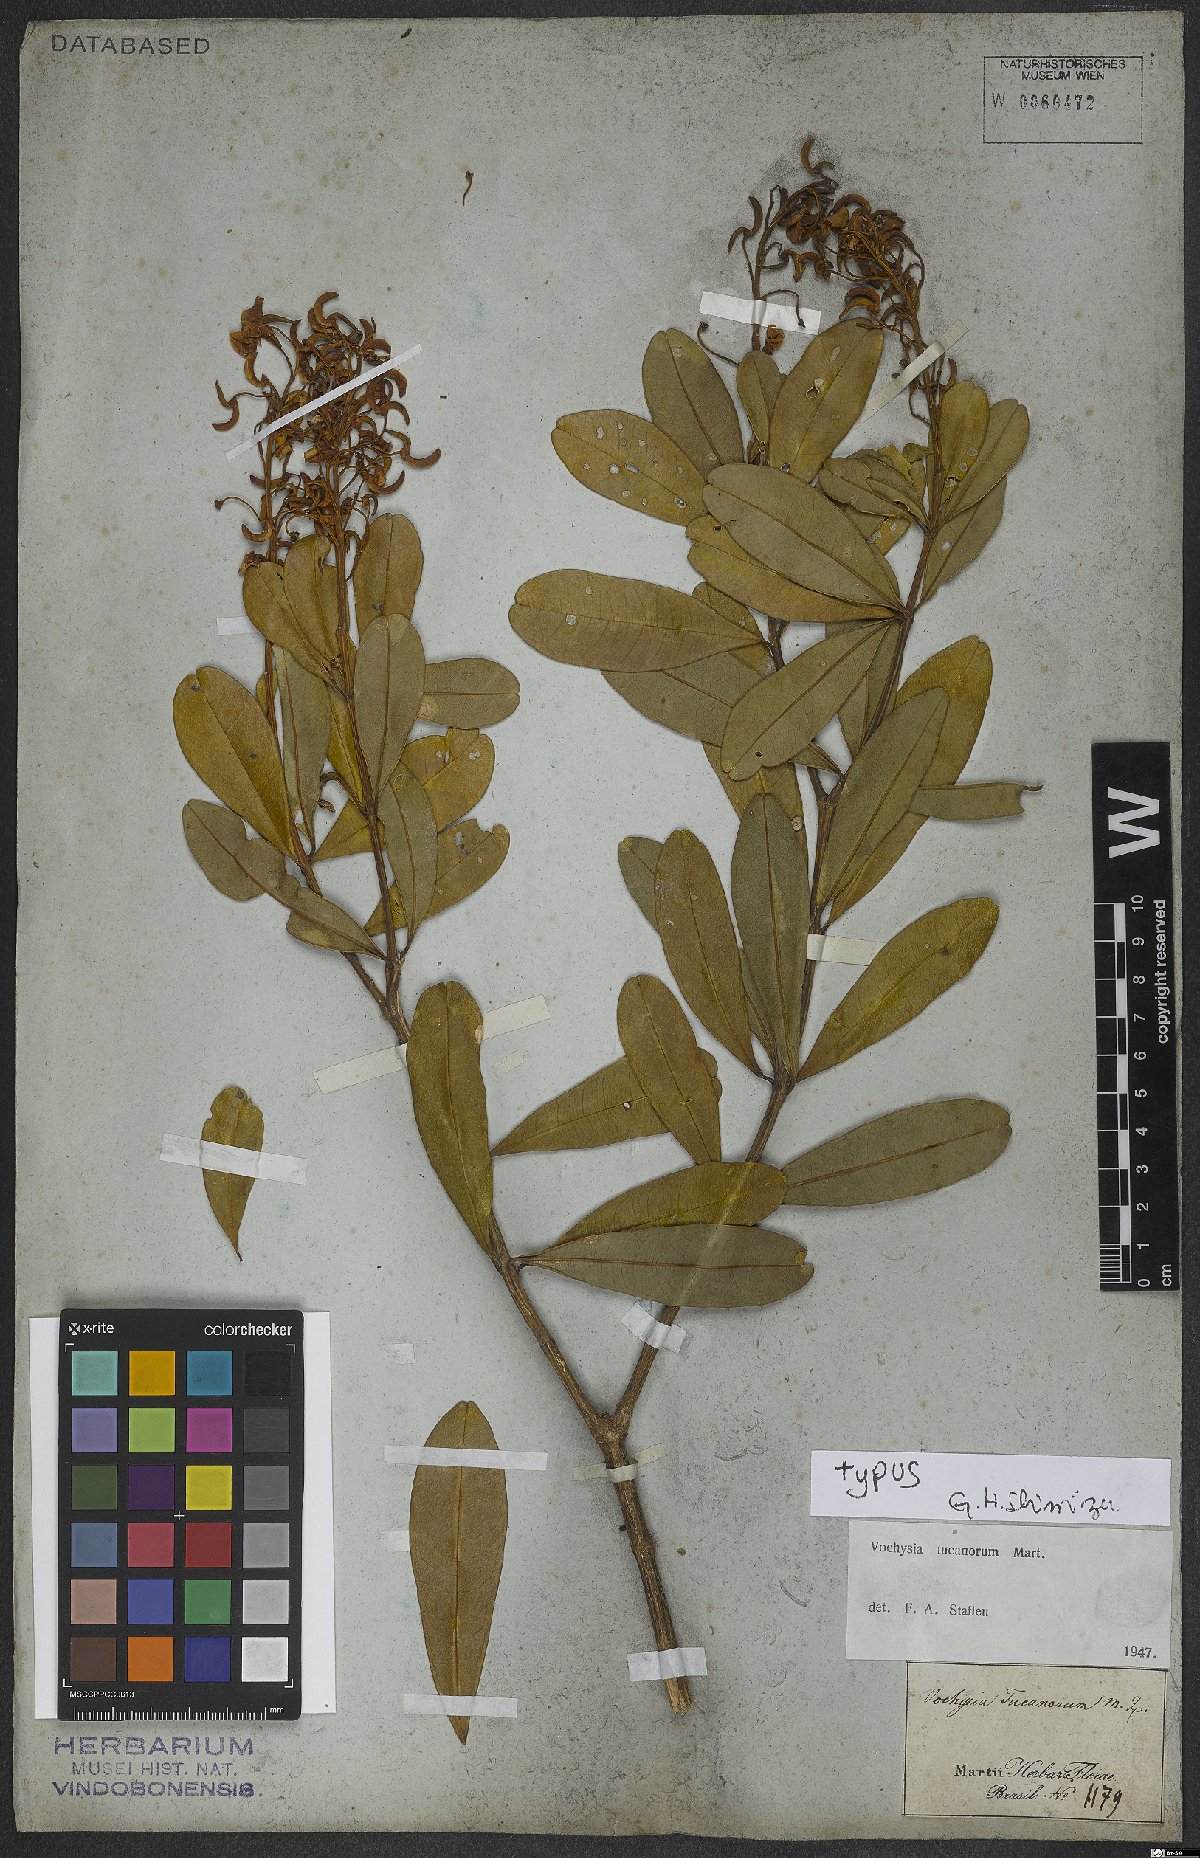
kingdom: Plantae
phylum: Tracheophyta
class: Magnoliopsida
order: Myrtales
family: Vochysiaceae
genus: Vochysia
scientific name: Vochysia tucanorum
